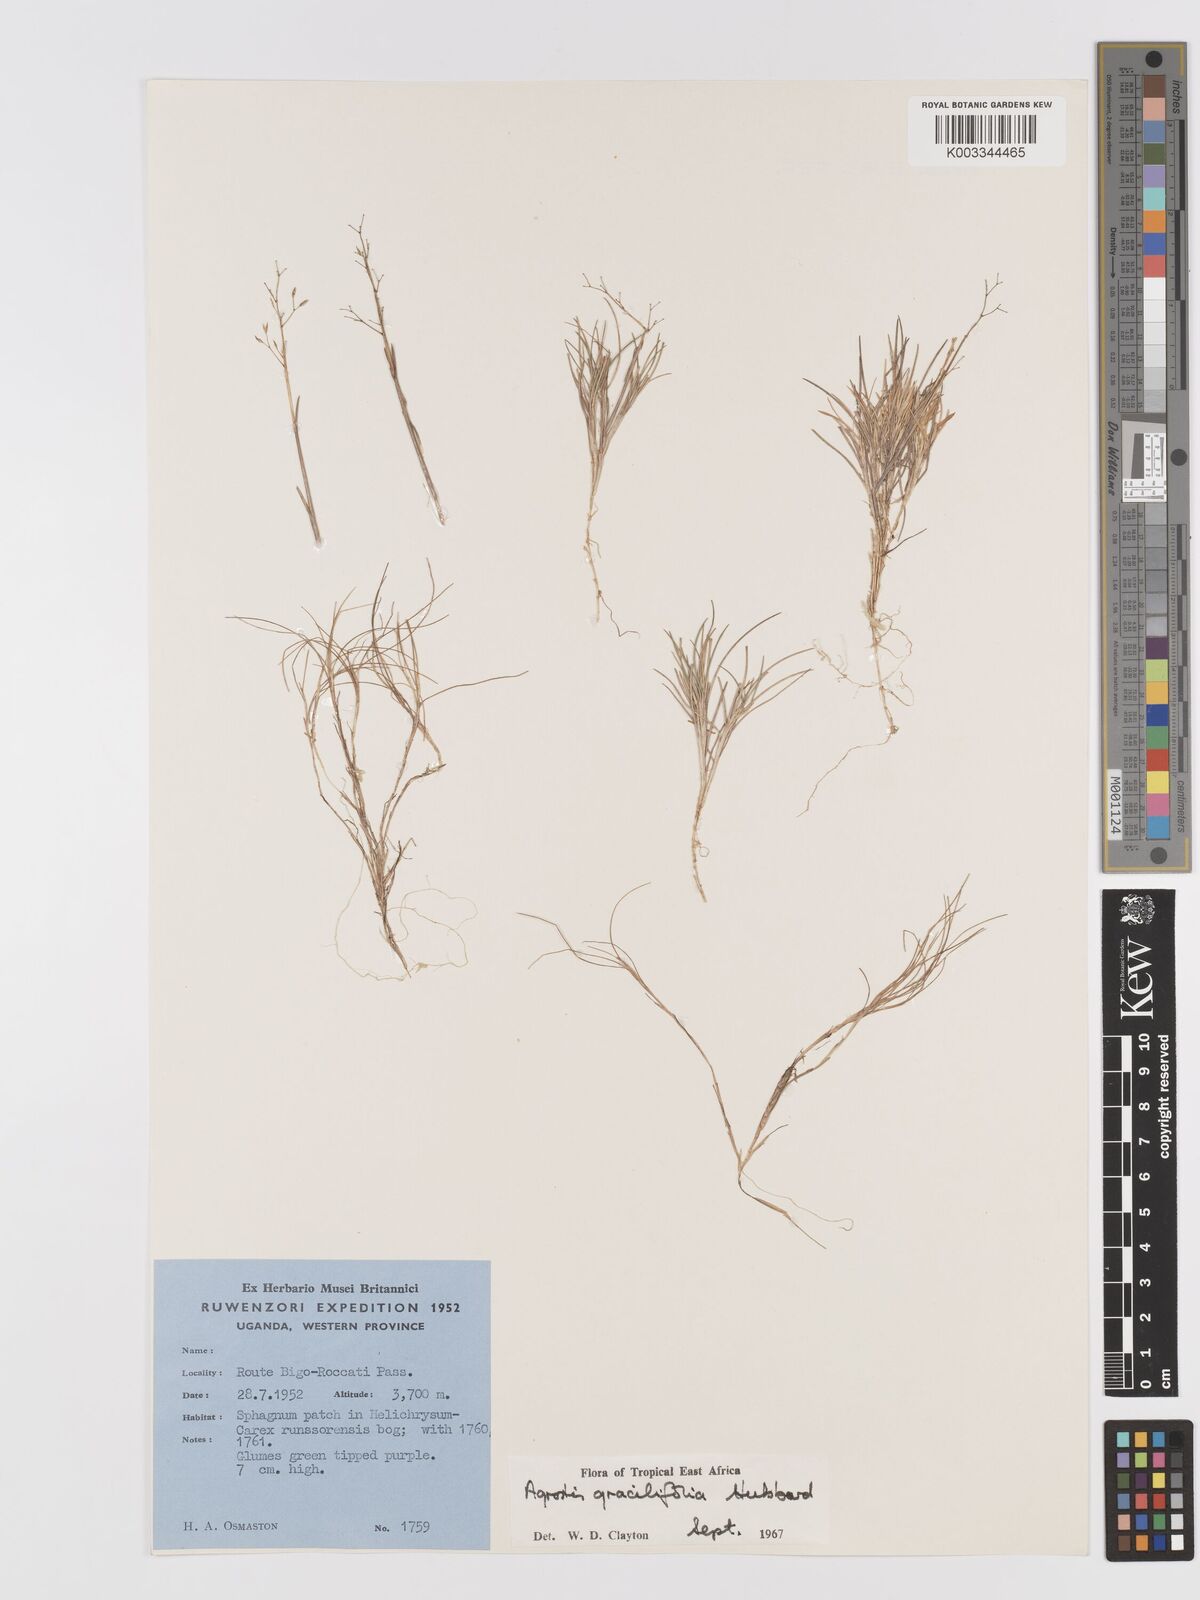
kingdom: Plantae
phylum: Tracheophyta
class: Liliopsida
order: Poales
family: Poaceae
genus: Agrostis
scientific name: Agrostis gracilifolia
